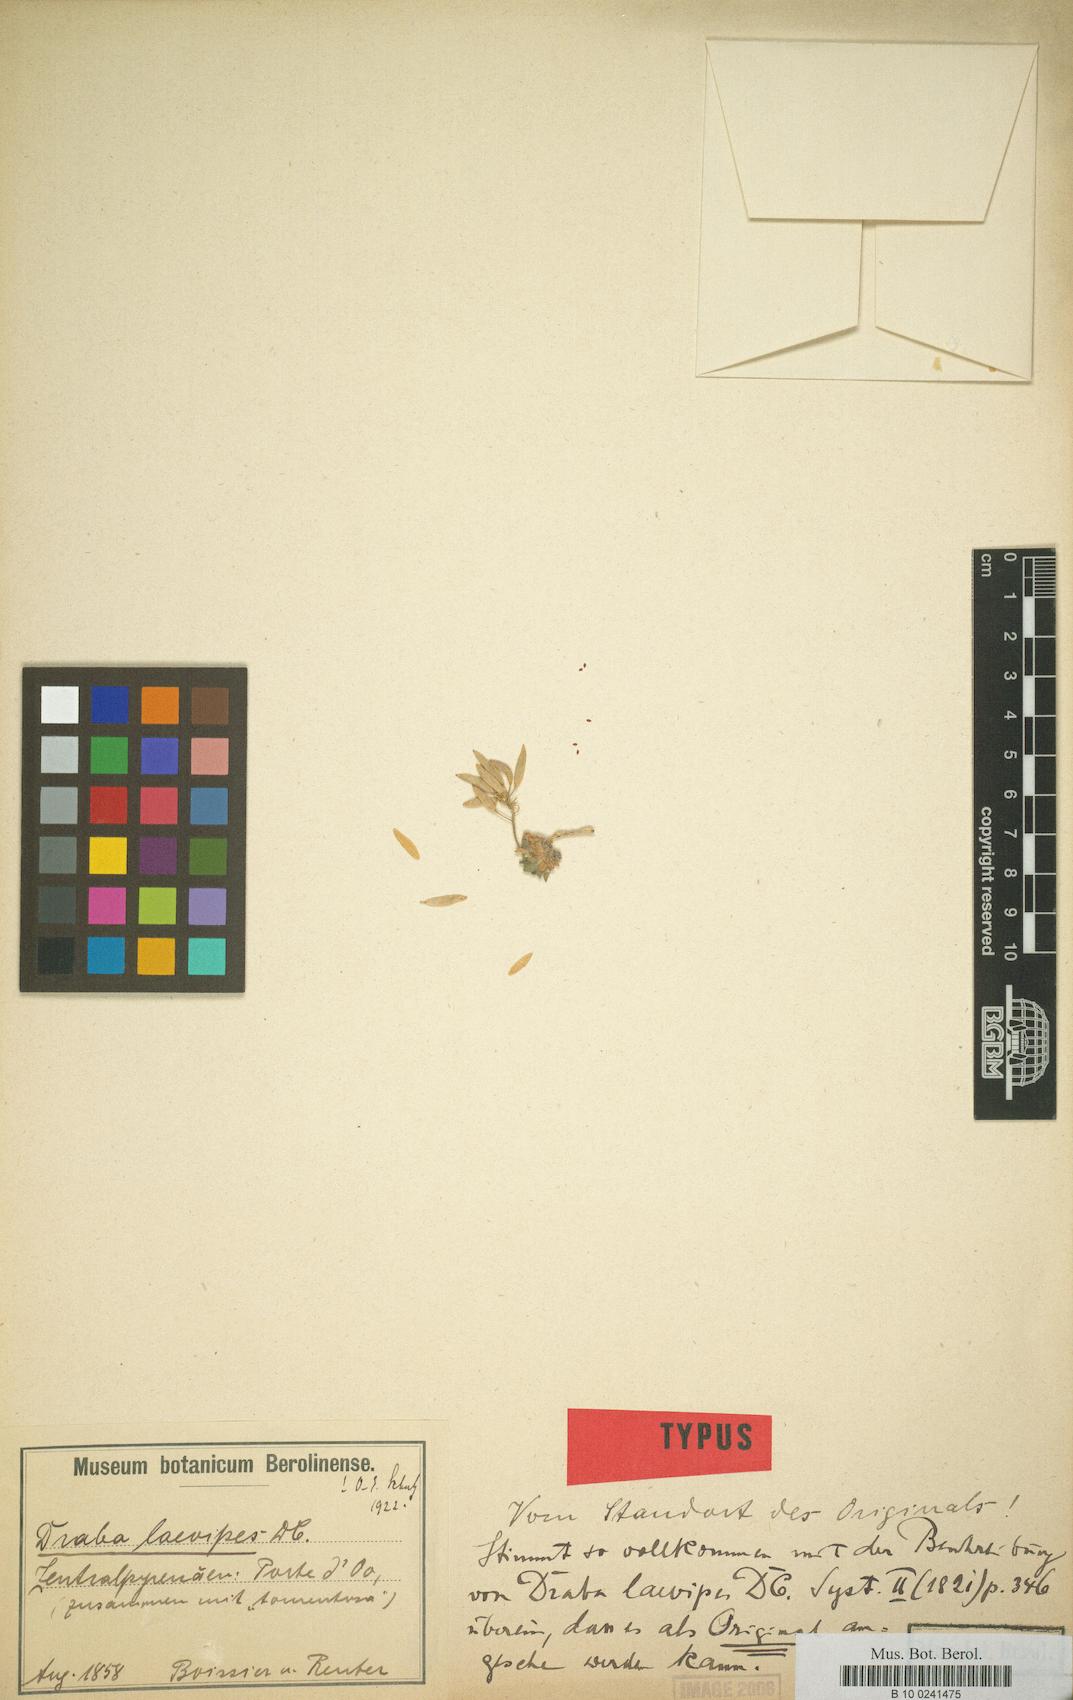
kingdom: Plantae
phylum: Tracheophyta
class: Magnoliopsida
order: Brassicales
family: Brassicaceae
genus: Draba
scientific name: Draba dubia
